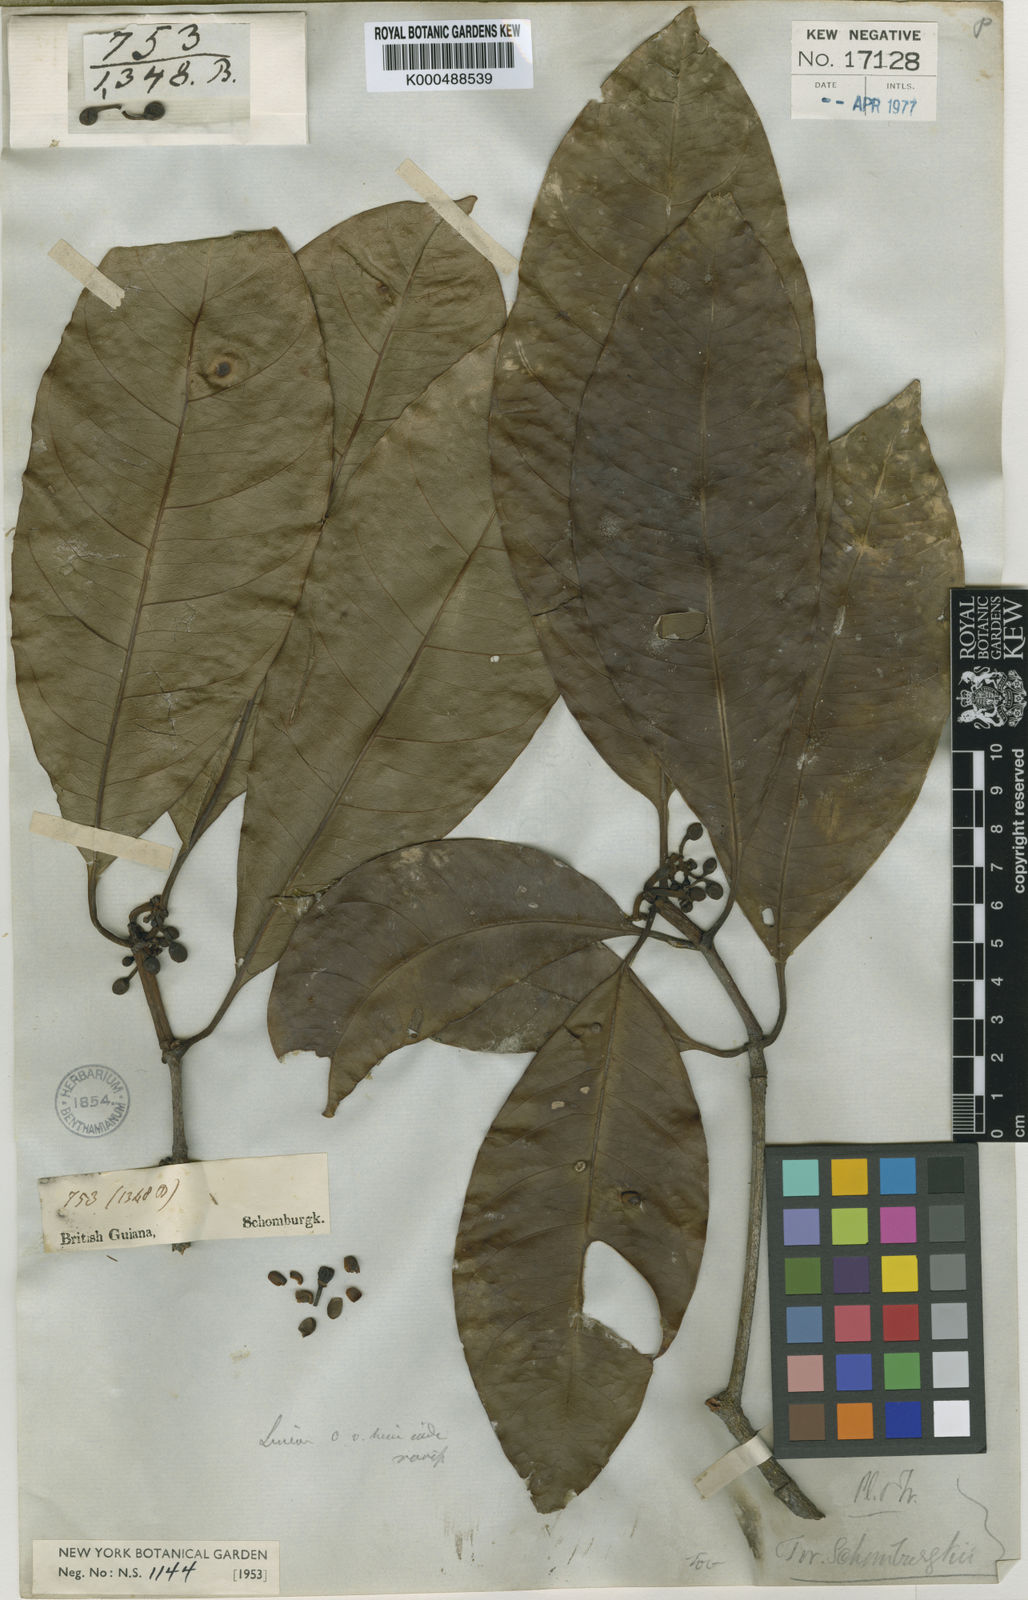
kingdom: Plantae
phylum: Tracheophyta
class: Magnoliopsida
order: Malpighiales
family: Clusiaceae
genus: Tovomita
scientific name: Tovomita schomburgkii
